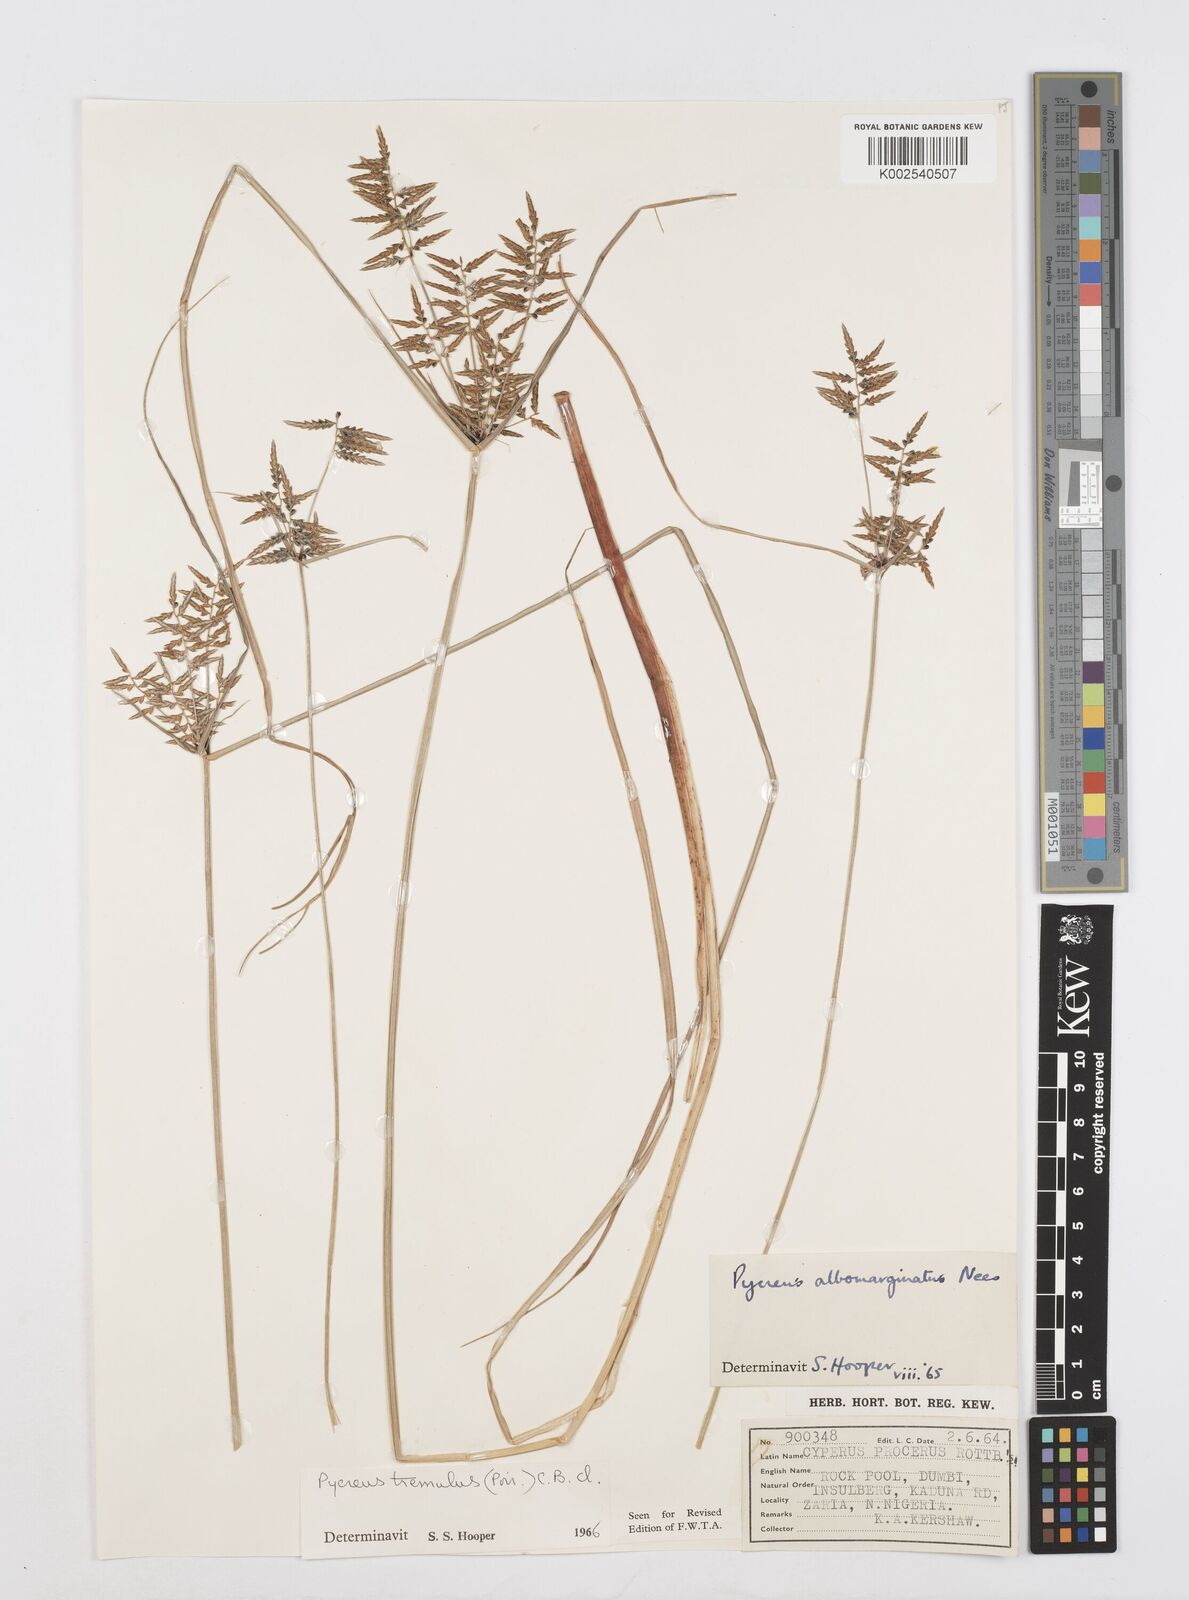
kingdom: Plantae
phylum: Tracheophyta
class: Liliopsida
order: Poales
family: Cyperaceae
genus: Cyperus
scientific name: Cyperus macrostachyos
